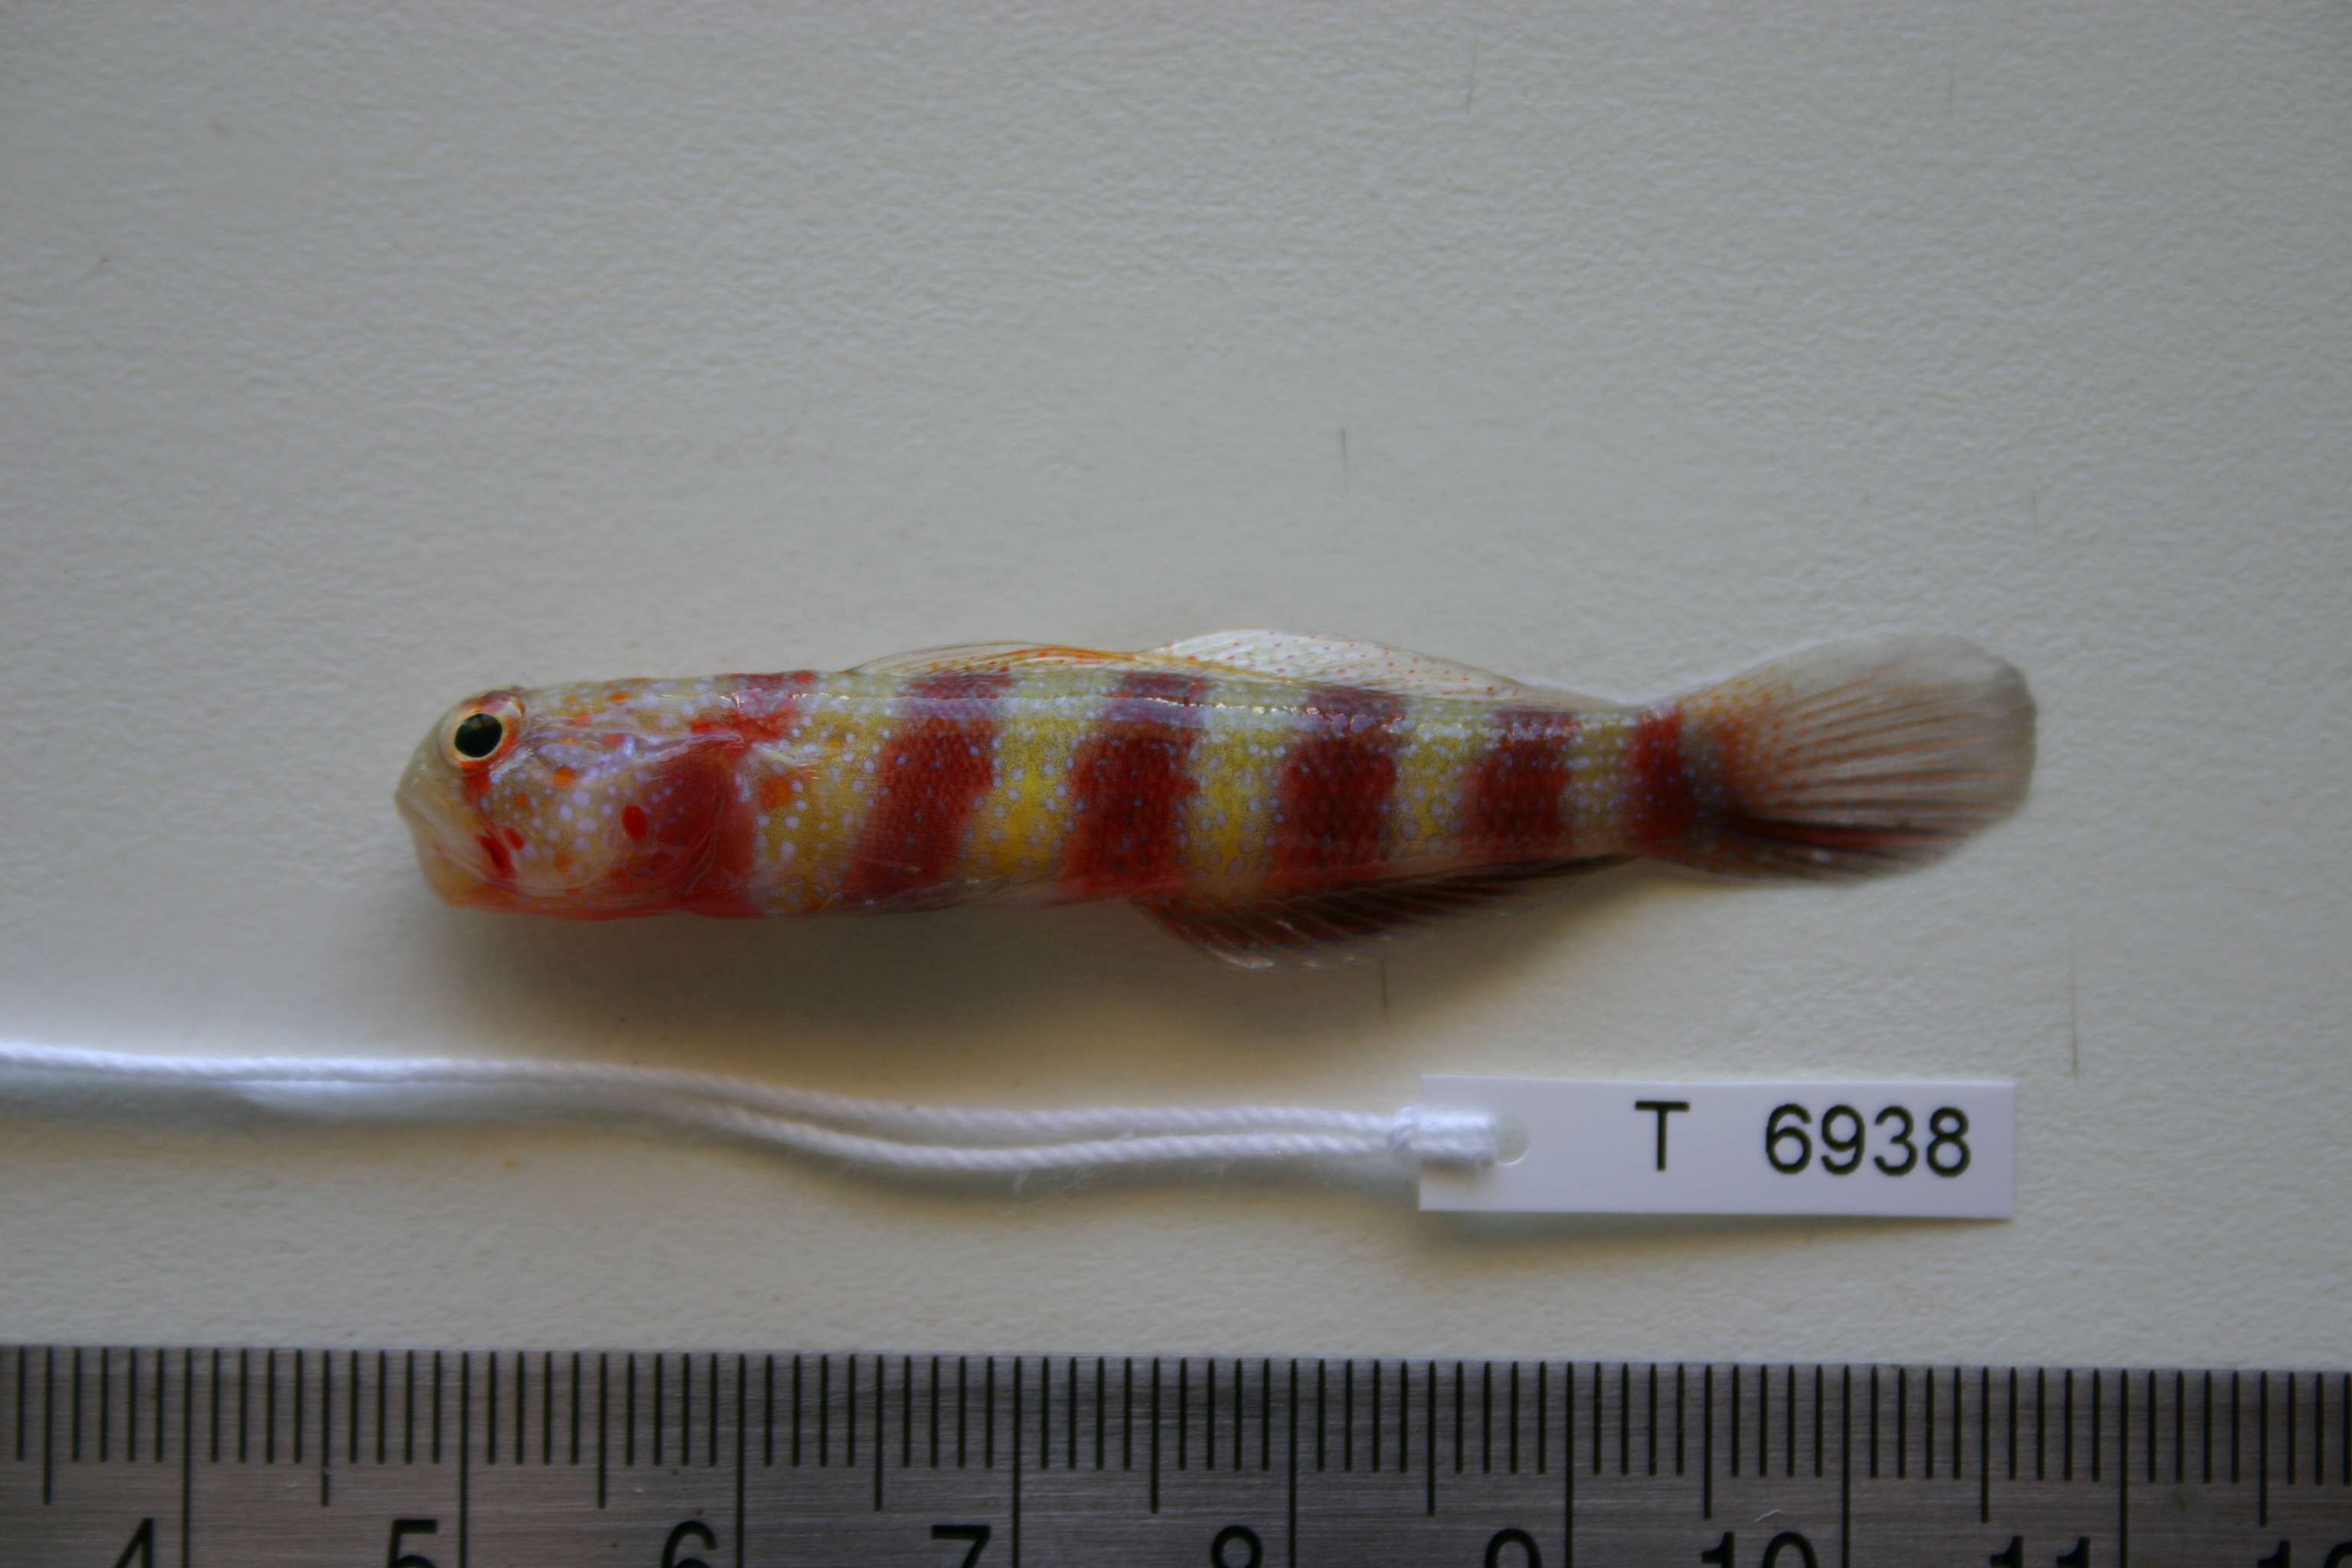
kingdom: Animalia
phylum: Chordata
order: Perciformes
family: Gobiidae
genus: Amblyeleotris
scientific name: Amblyeleotris wheeleri
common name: Gorgeous prawn-goby
